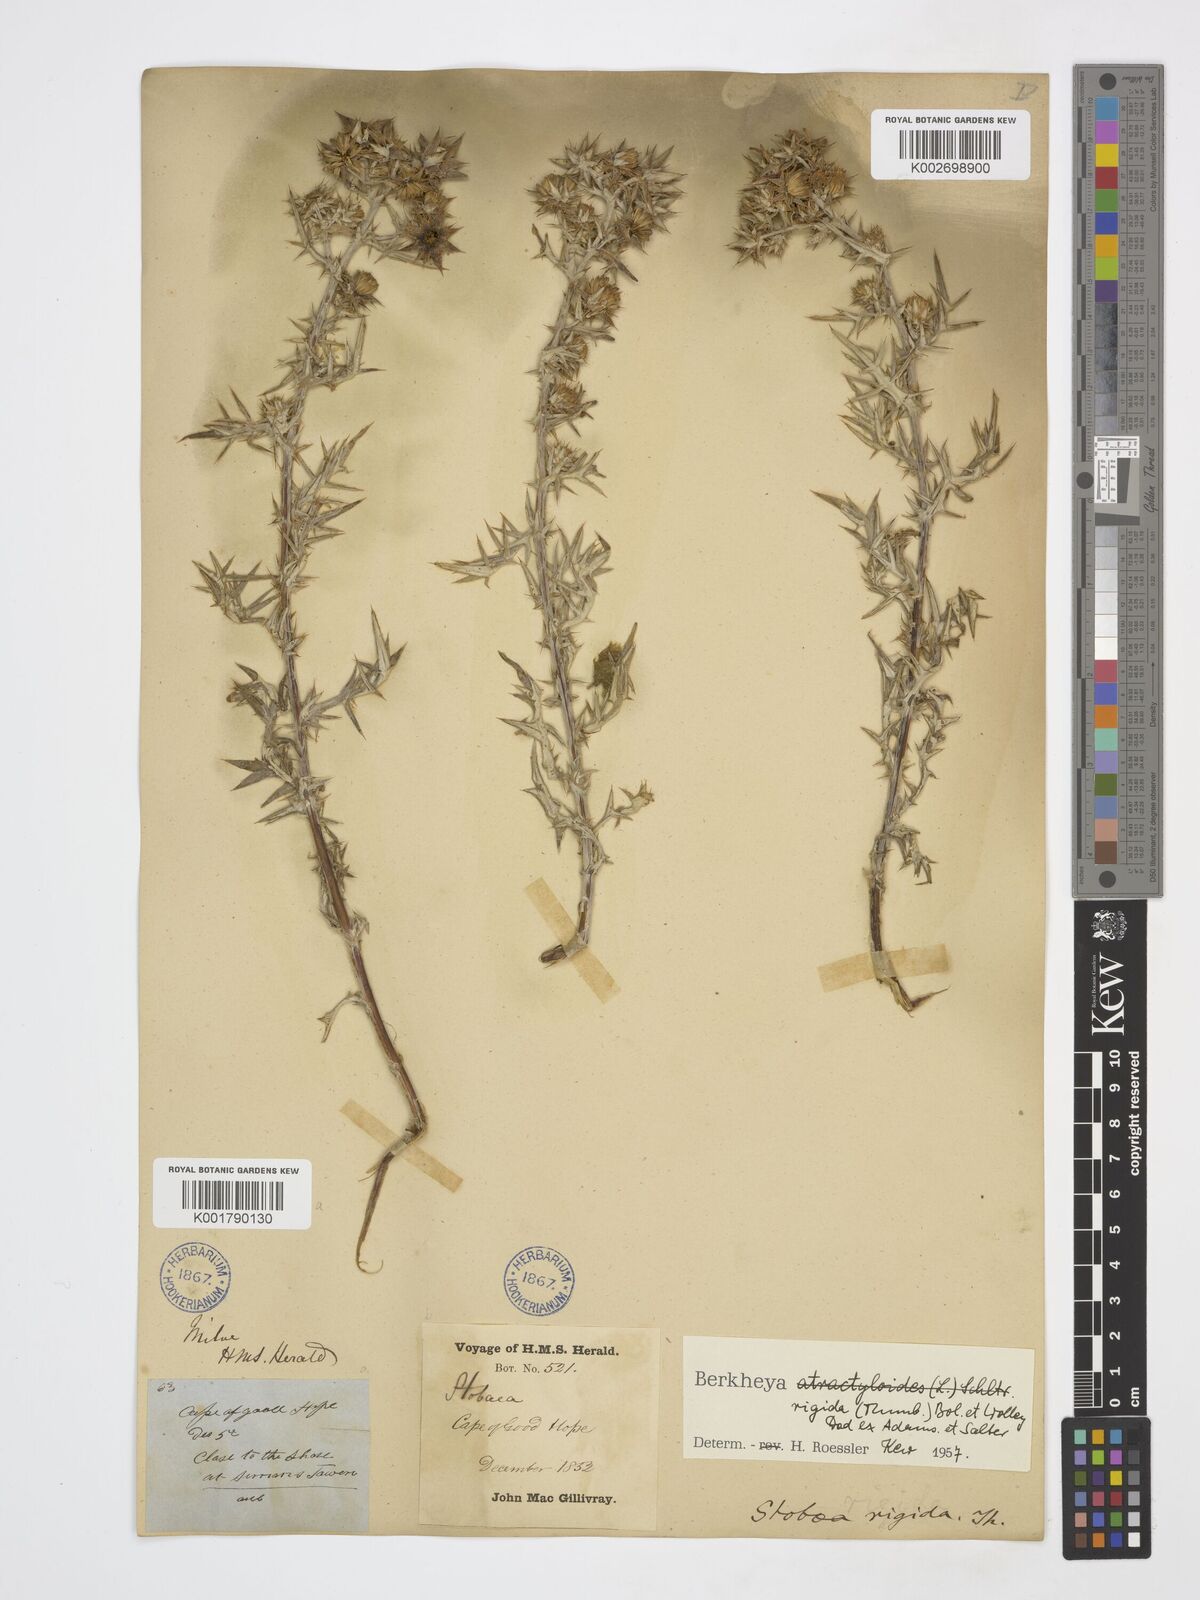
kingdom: Plantae
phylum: Tracheophyta
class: Magnoliopsida
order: Asterales
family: Asteraceae
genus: Berkheya
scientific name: Berkheya rigida
